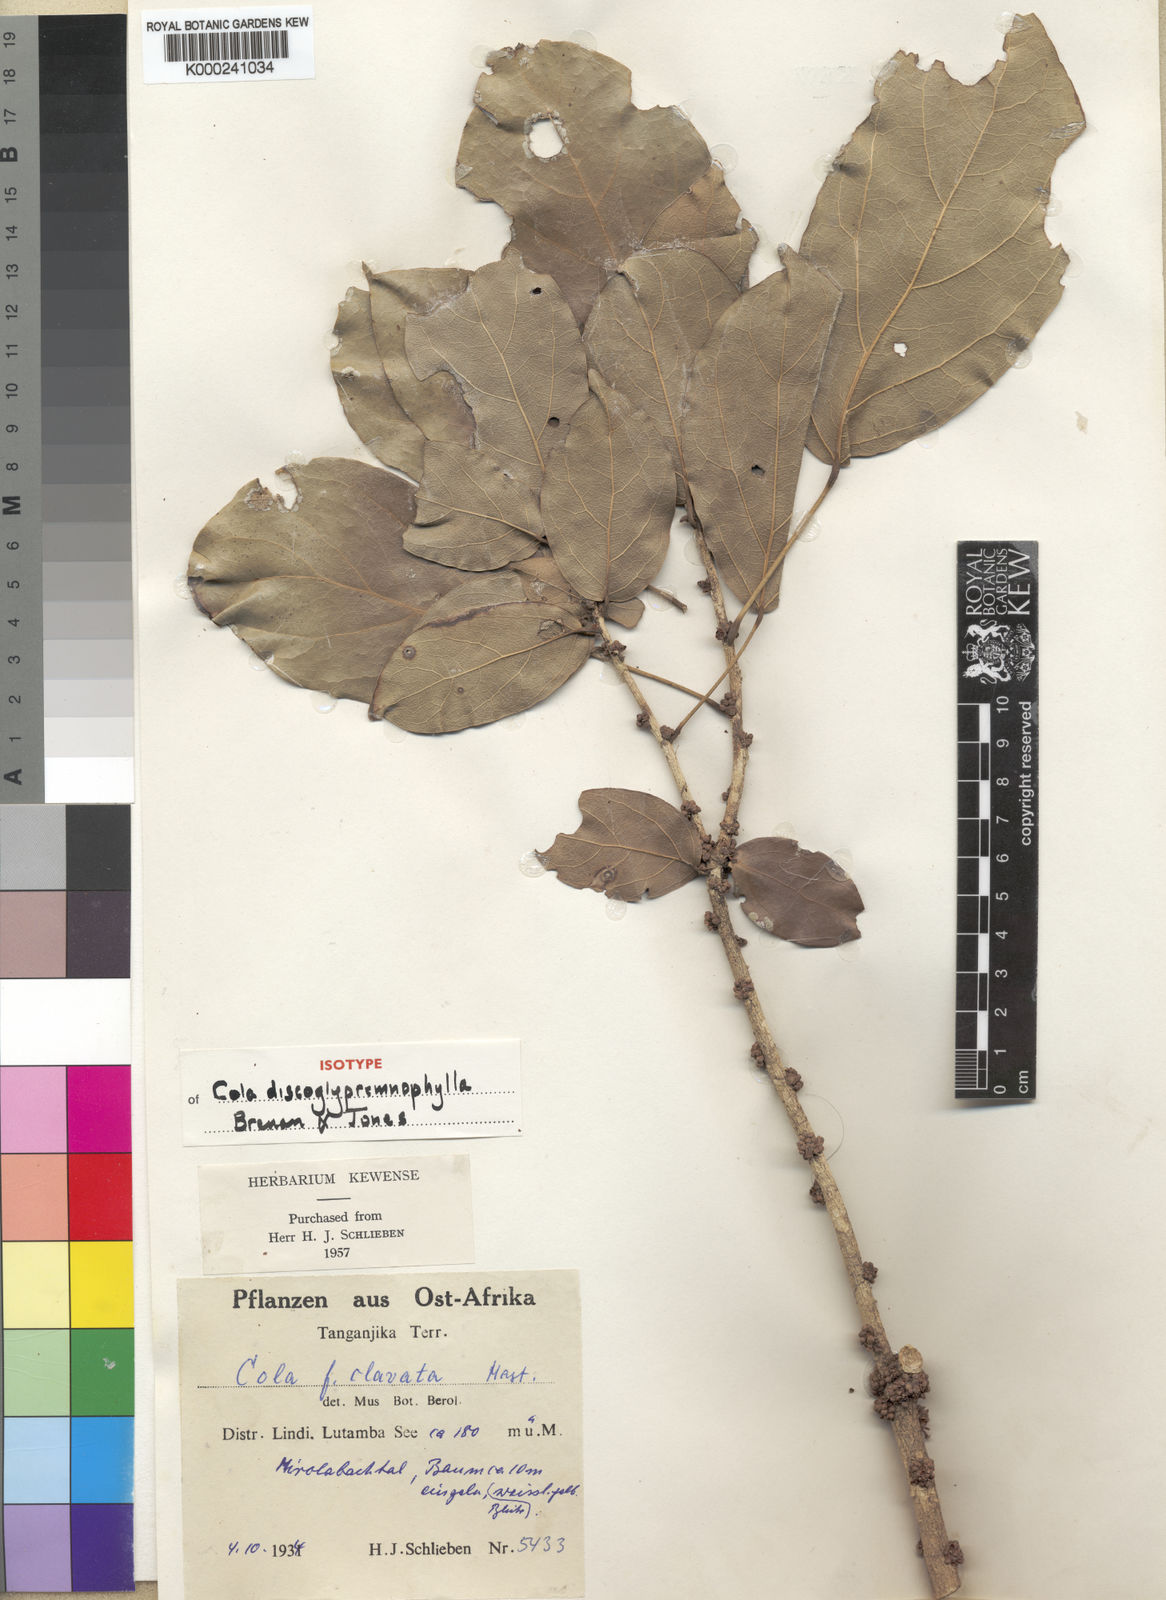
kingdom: Plantae
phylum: Tracheophyta
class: Magnoliopsida
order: Malvales
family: Malvaceae
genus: Cola
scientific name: Cola discoglypremnophylla
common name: Discoglypremna-leaved cola
